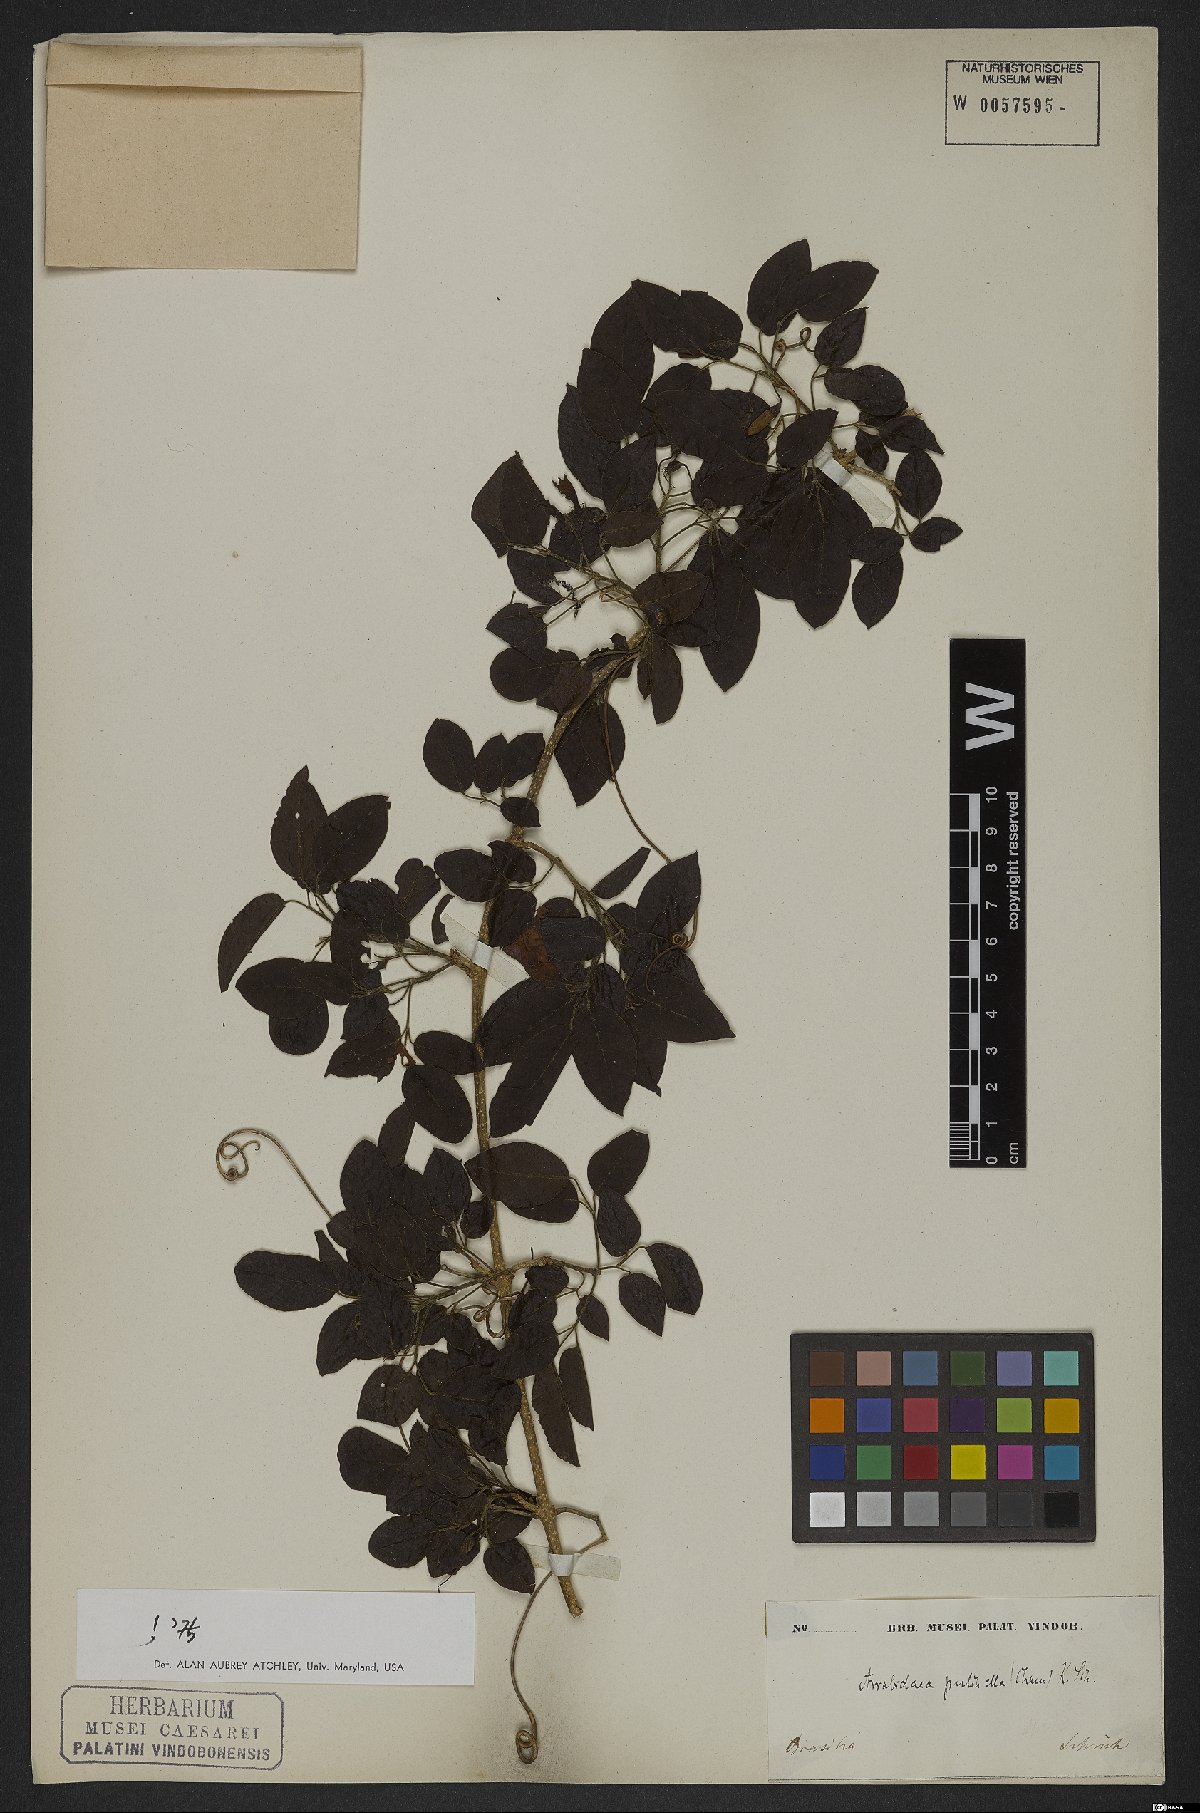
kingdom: Plantae
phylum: Tracheophyta
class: Magnoliopsida
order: Lamiales
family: Bignoniaceae
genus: Cuspidaria
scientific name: Cuspidaria pulchella
